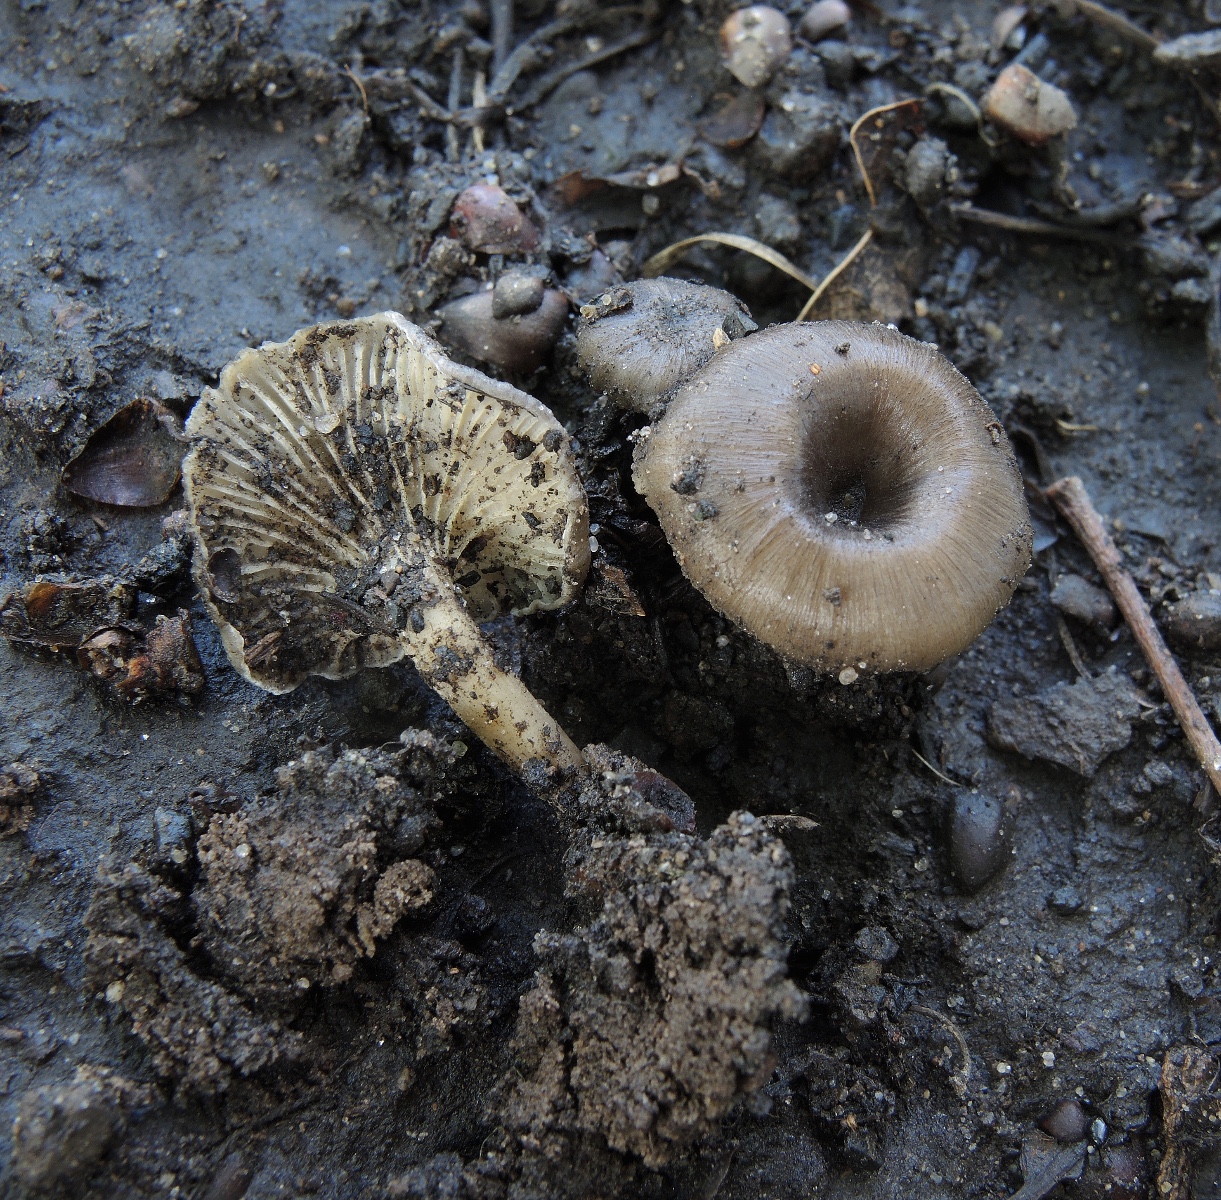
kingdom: Fungi
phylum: Basidiomycota
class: Agaricomycetes
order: Polyporales
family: Polyporaceae
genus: Faerberia
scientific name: Faerberia carbonaria
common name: kulkantarel
